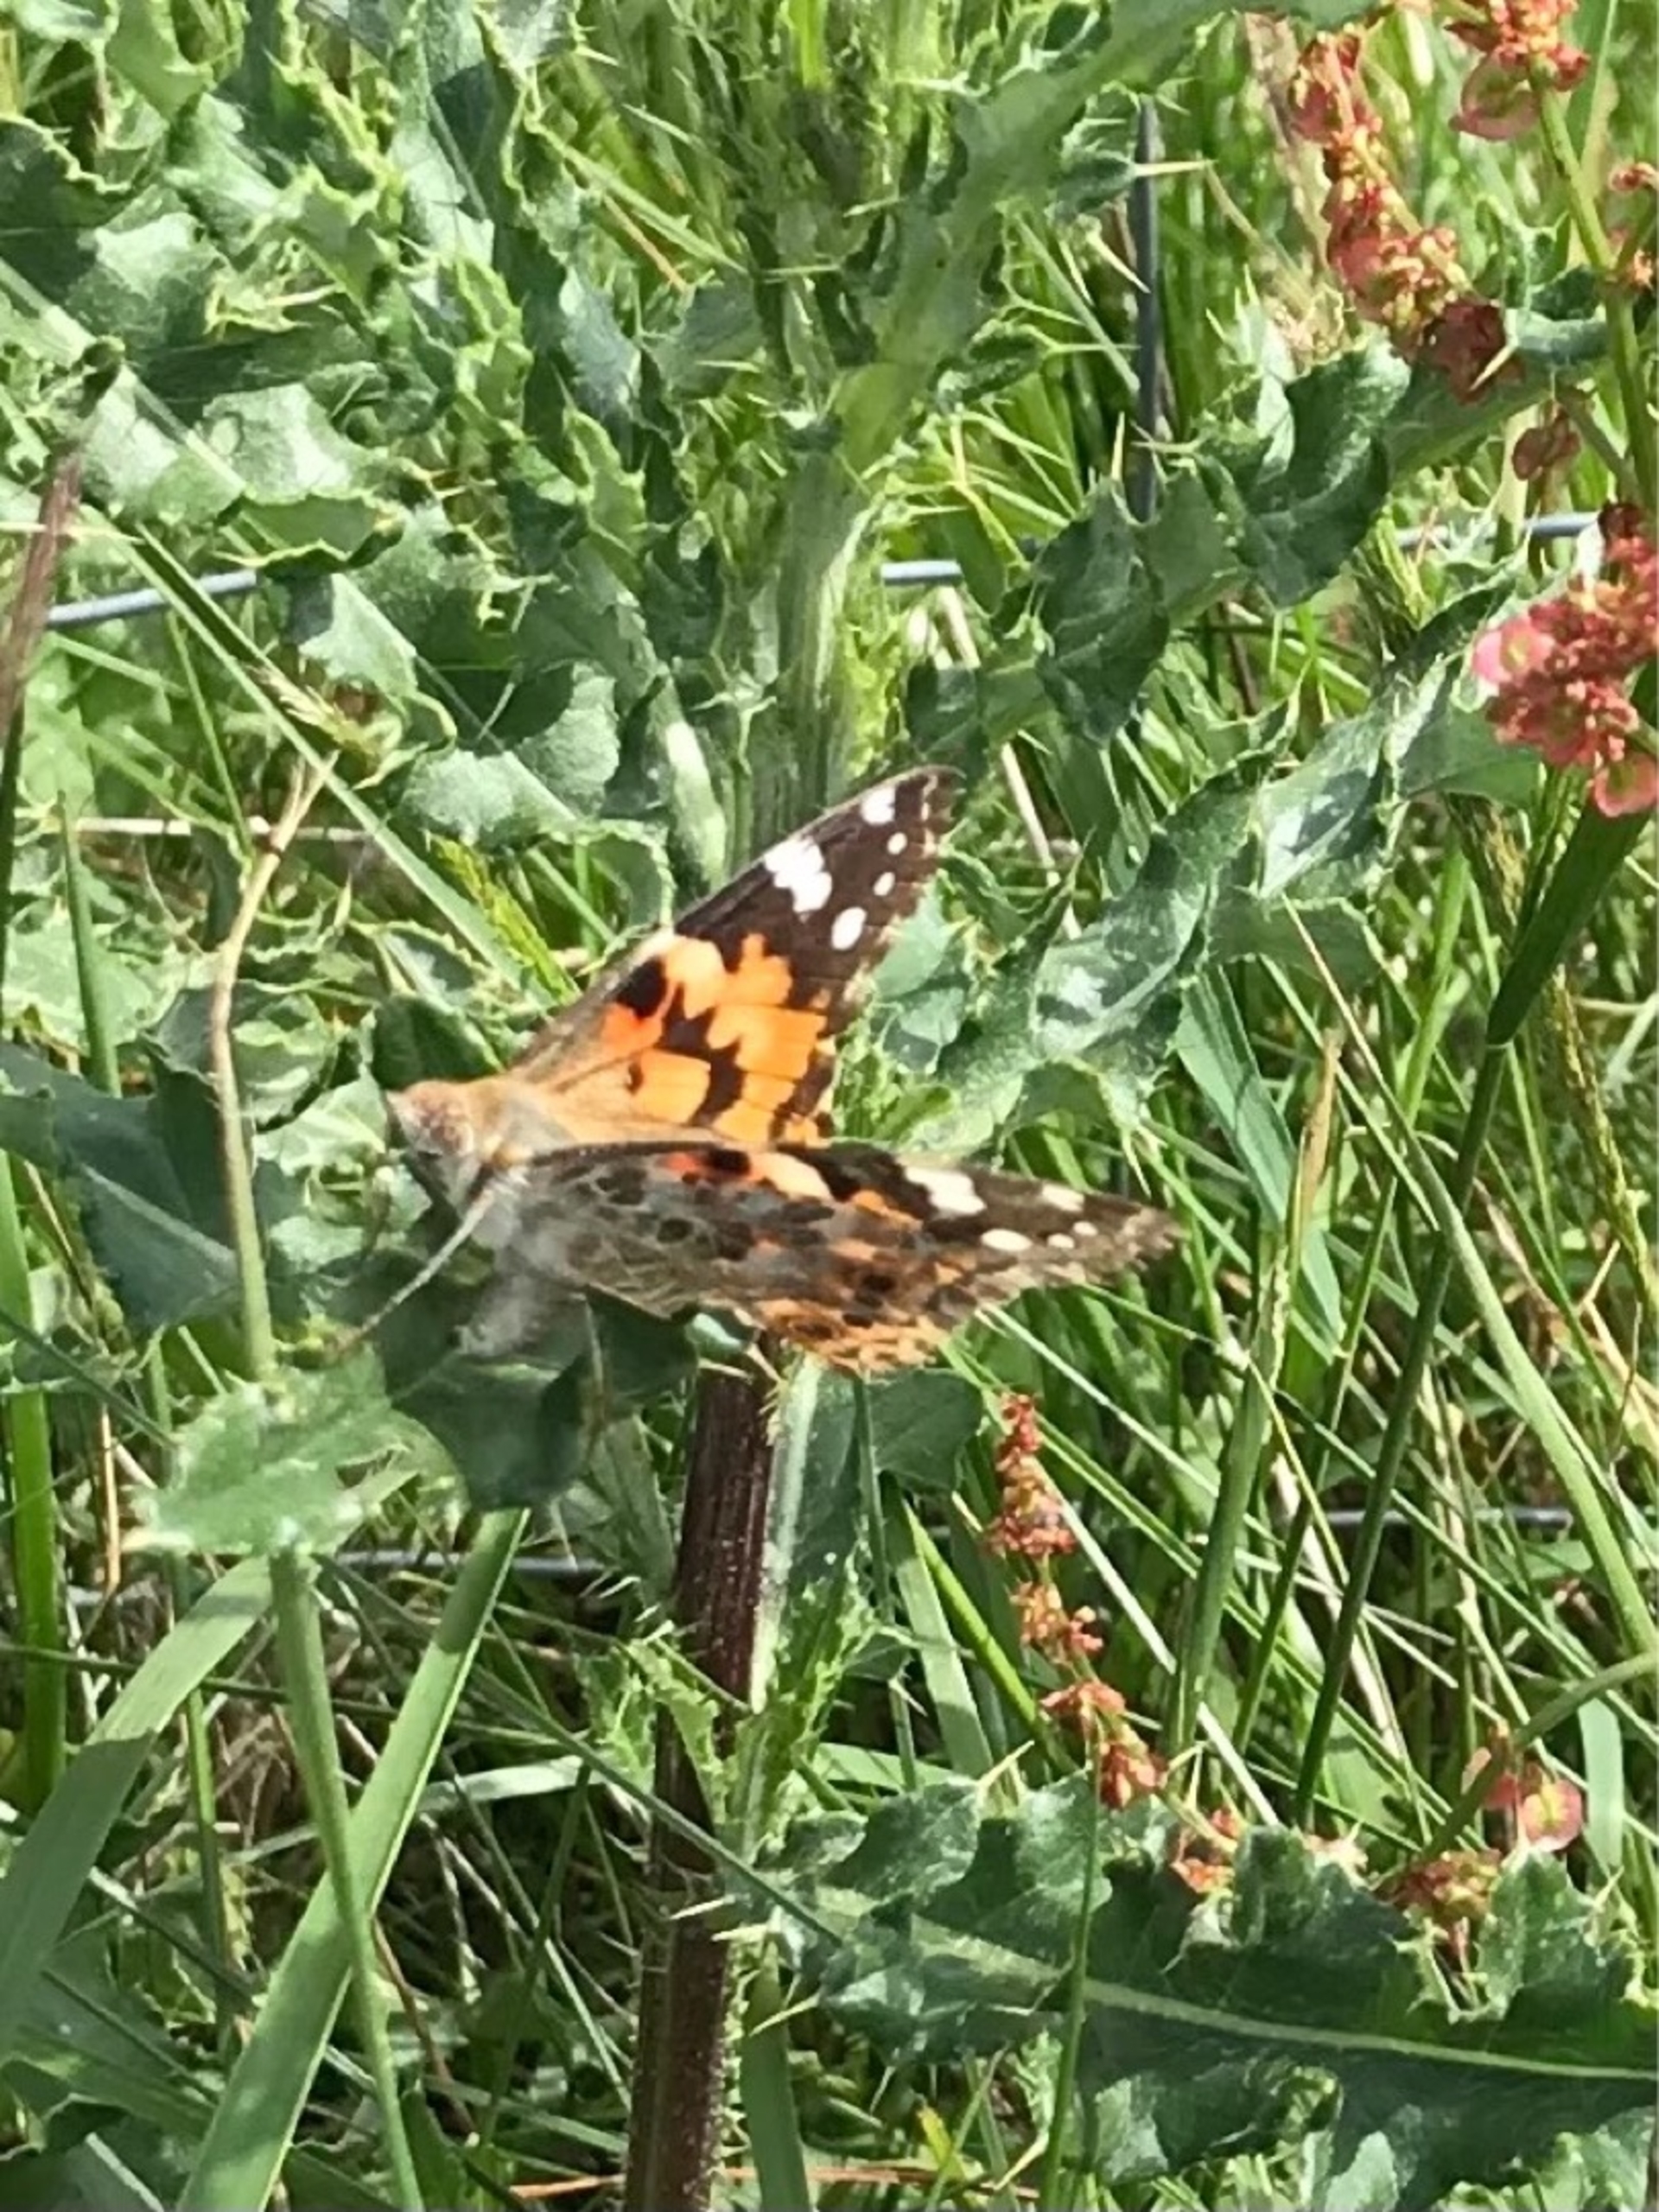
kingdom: Animalia
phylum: Arthropoda
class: Insecta
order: Lepidoptera
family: Nymphalidae
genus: Vanessa
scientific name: Vanessa cardui
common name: Tidselsommerfugl
